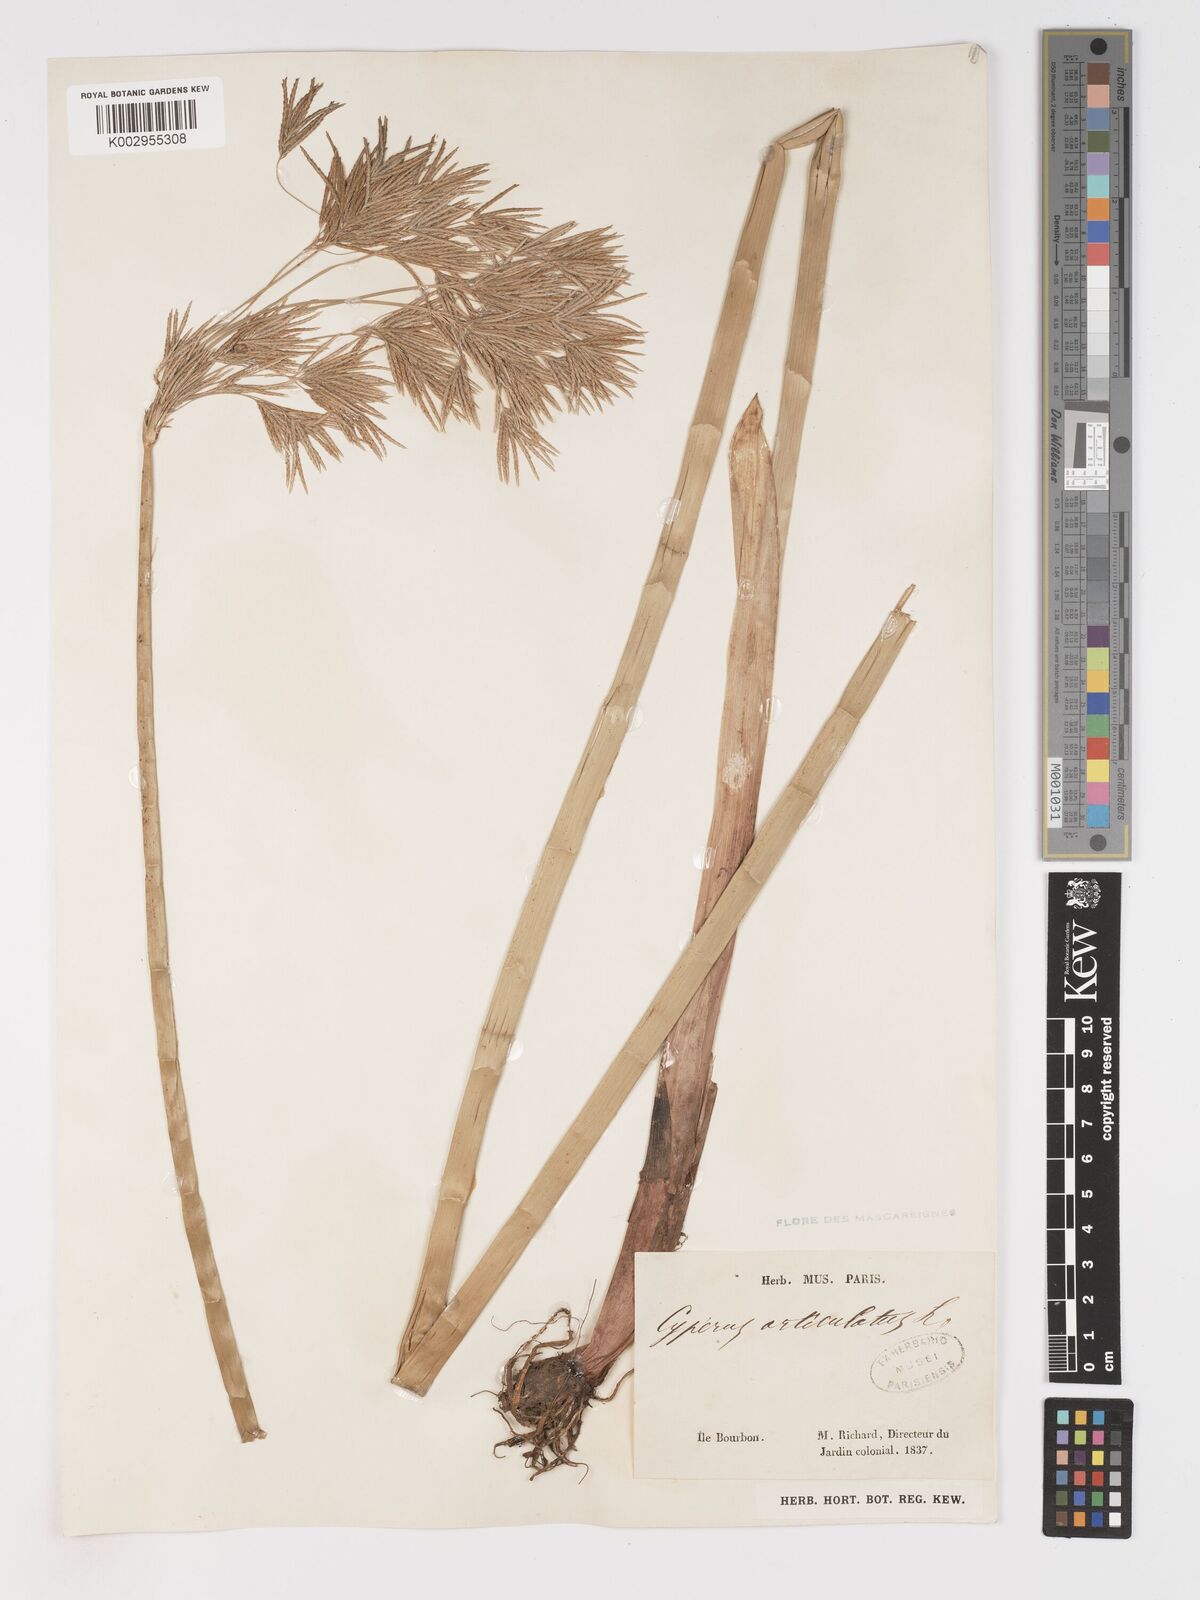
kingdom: Plantae
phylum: Tracheophyta
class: Liliopsida
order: Poales
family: Cyperaceae
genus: Cyperus
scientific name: Cyperus articulatus
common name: Jointed flatsedge
